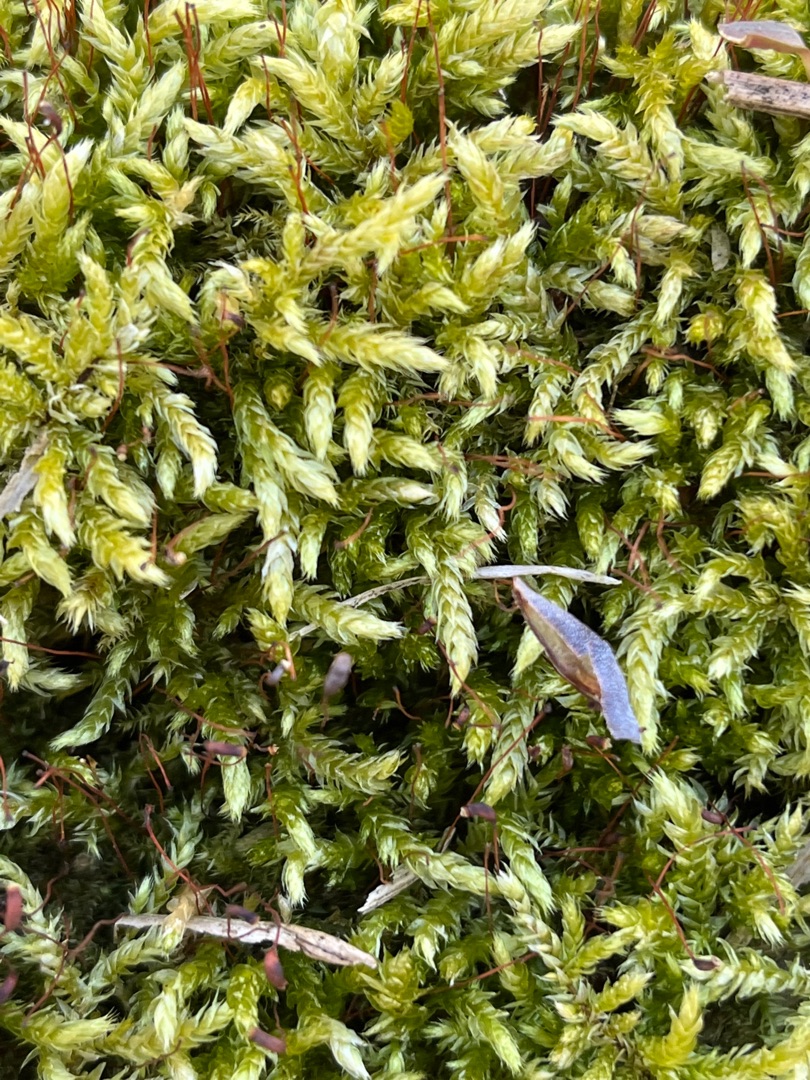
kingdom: Plantae
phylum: Bryophyta
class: Bryopsida
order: Hypnales
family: Brachytheciaceae
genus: Brachythecium
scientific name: Brachythecium rutabulum
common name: Almindelig kortkapsel
